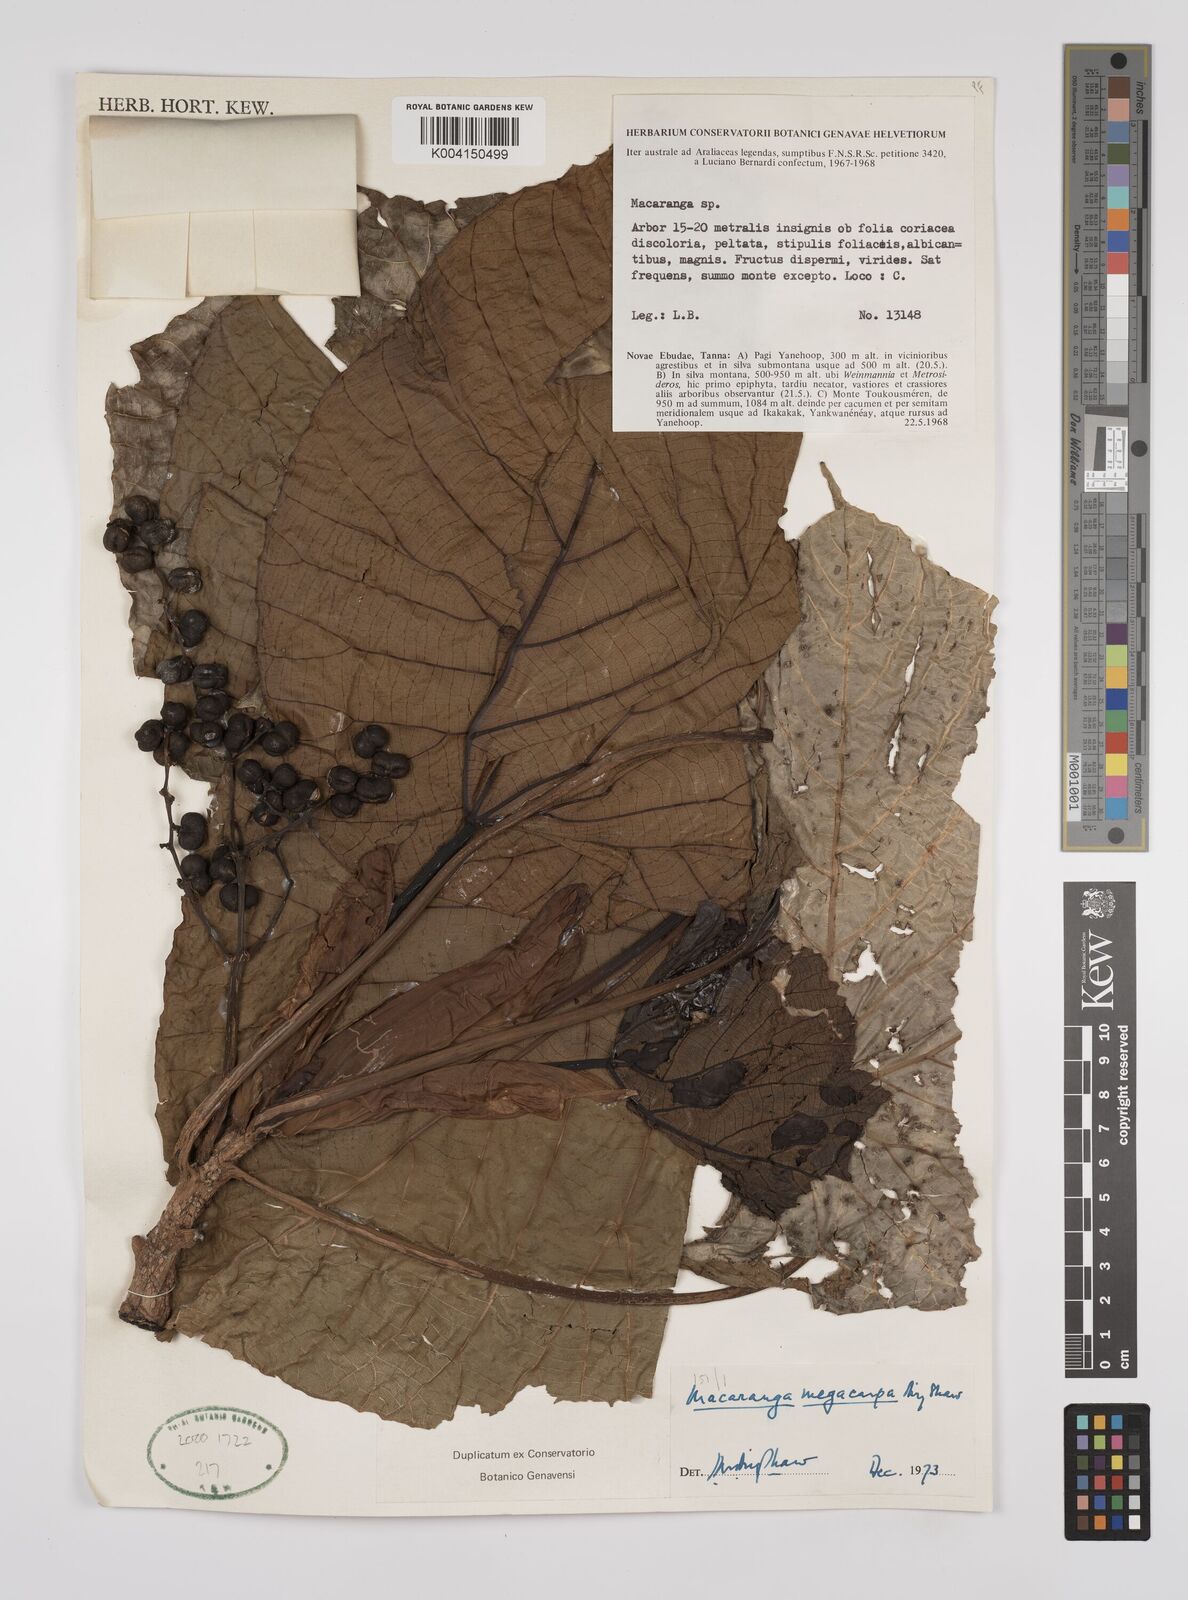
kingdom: Plantae
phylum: Tracheophyta
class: Magnoliopsida
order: Malpighiales
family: Euphorbiaceae
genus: Macaranga
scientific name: Macaranga megacarpa
